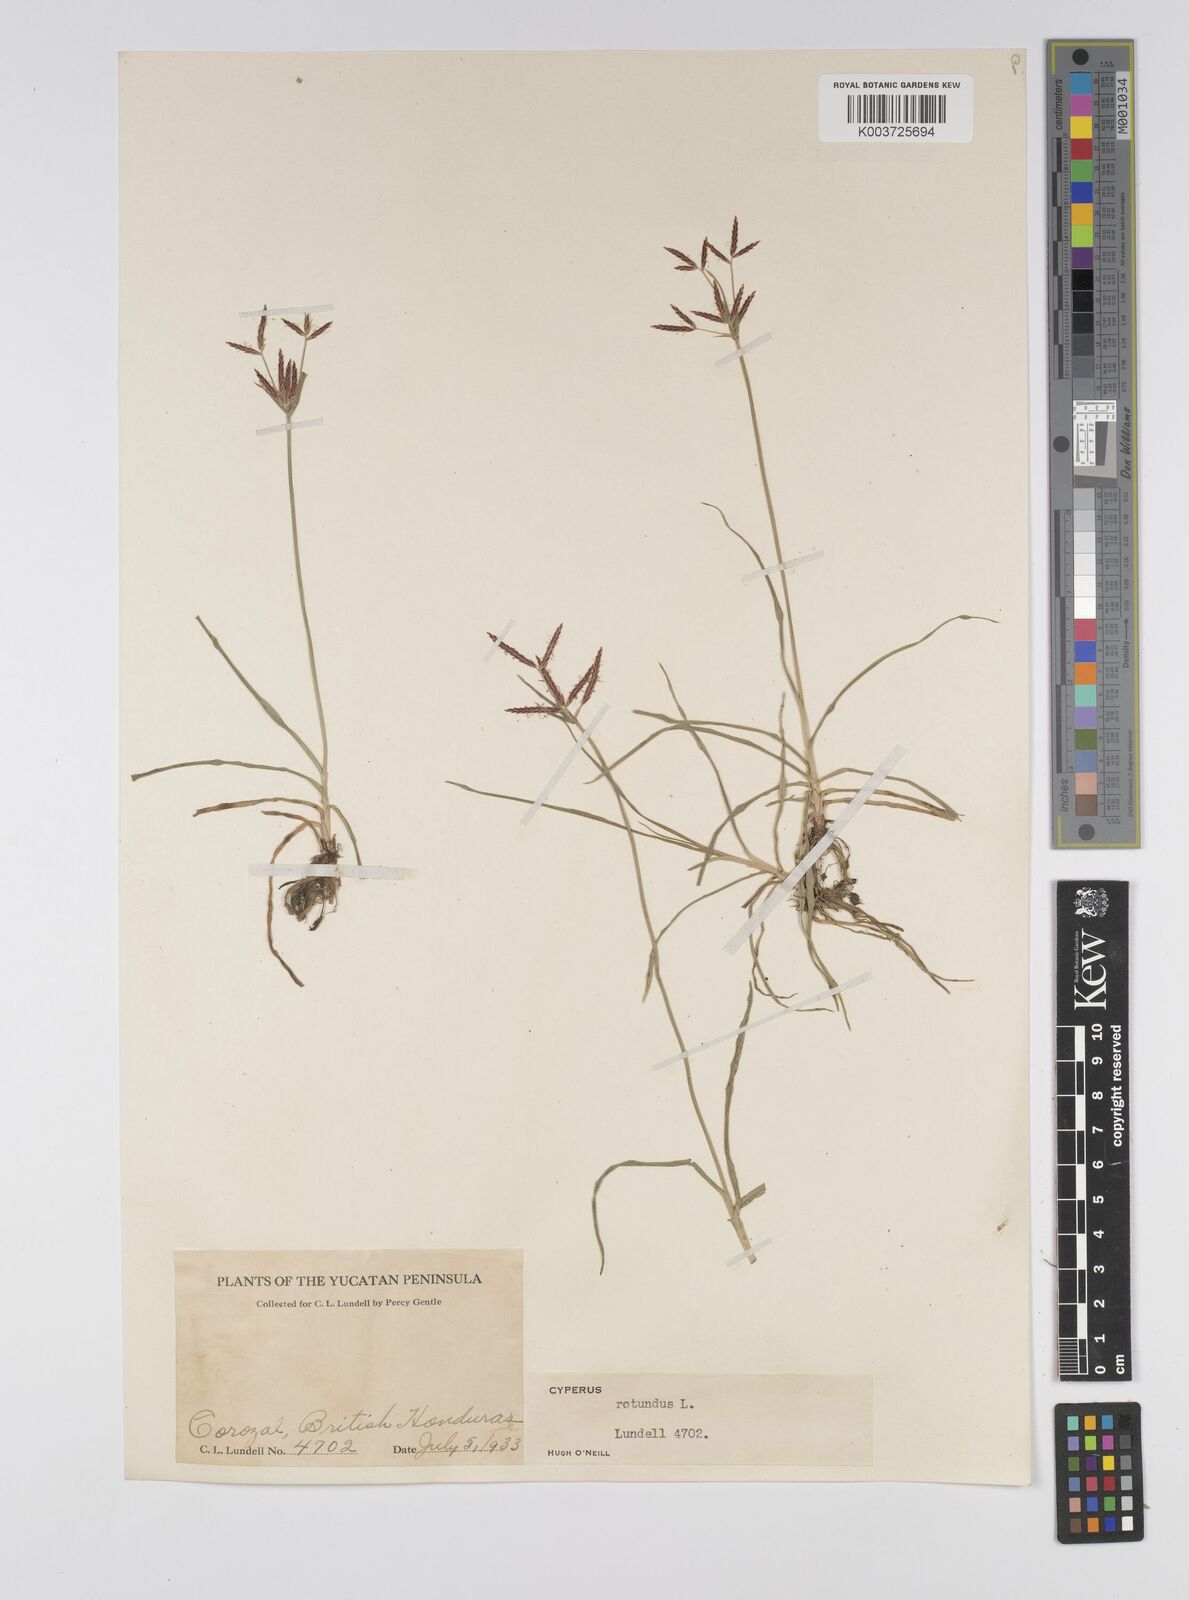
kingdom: Plantae
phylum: Tracheophyta
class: Liliopsida
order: Poales
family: Cyperaceae
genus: Cyperus
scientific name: Cyperus rotundus
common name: Nutgrass
